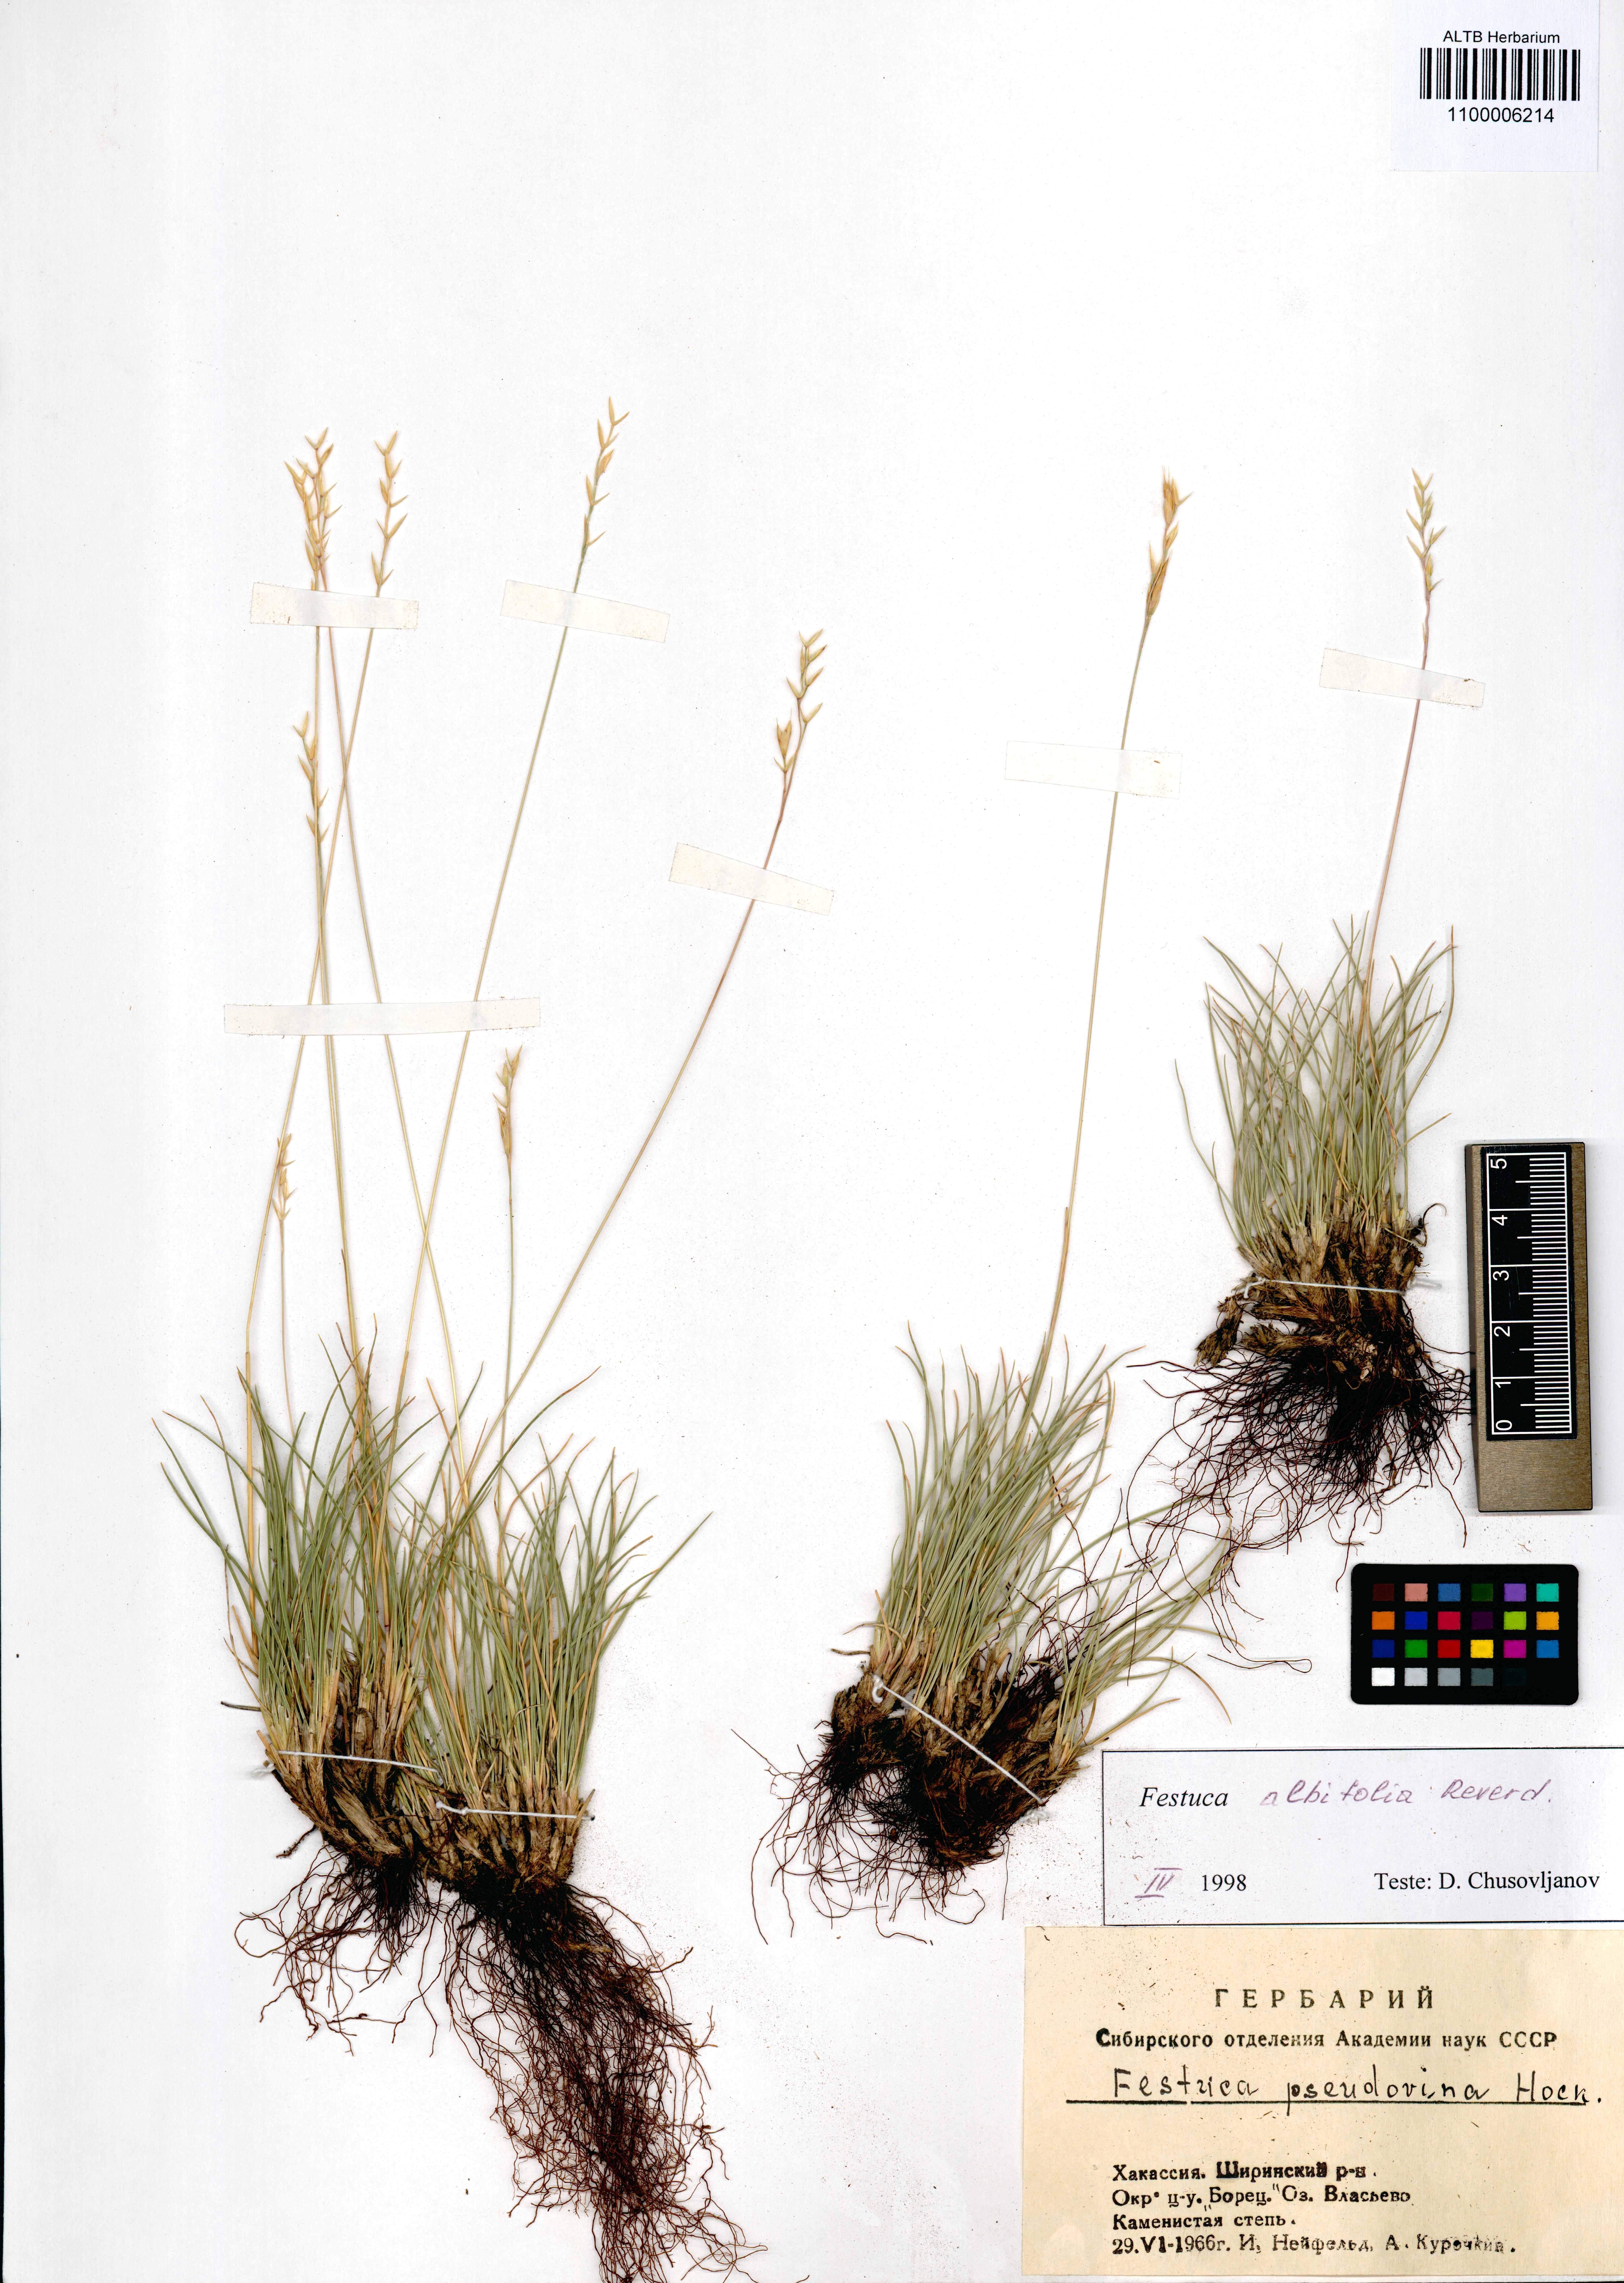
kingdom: Plantae
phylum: Tracheophyta
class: Liliopsida
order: Poales
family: Poaceae
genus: Festuca
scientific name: Festuca lenensis
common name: Lena river fescue
